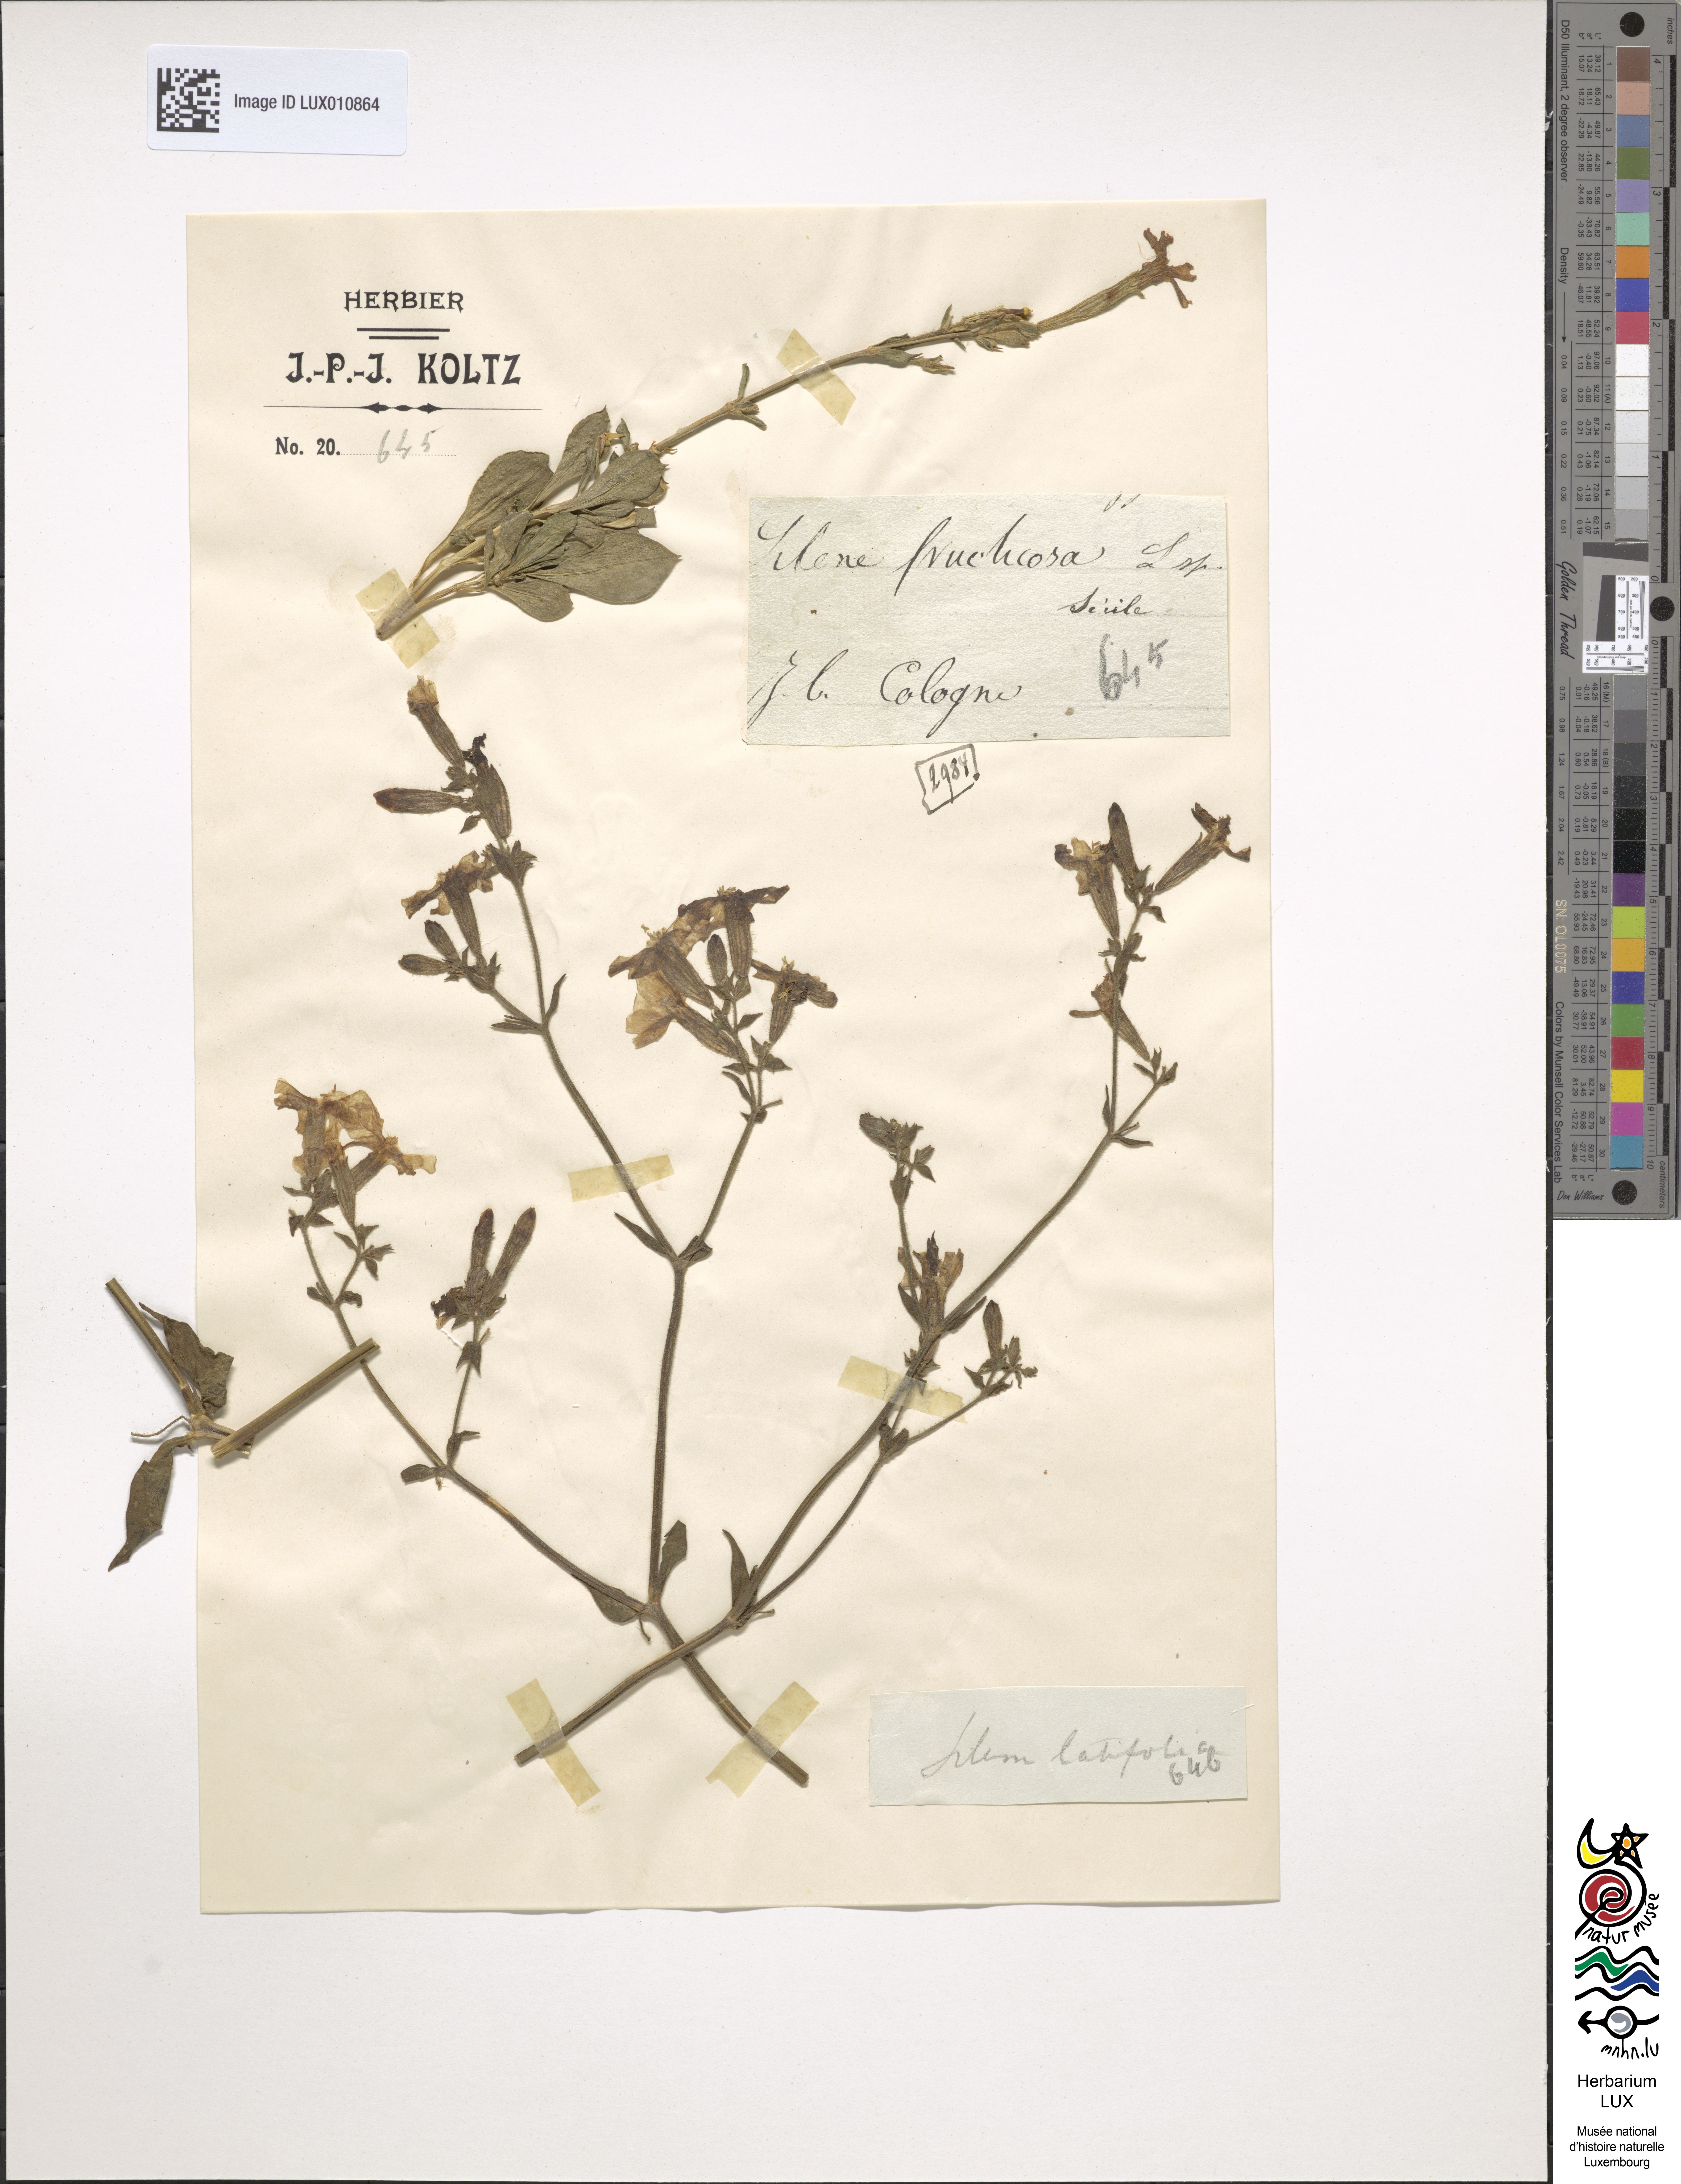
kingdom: Plantae
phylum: Tracheophyta
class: Magnoliopsida
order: Caryophyllales
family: Caryophyllaceae
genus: Silene
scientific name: Silene fruticosa
